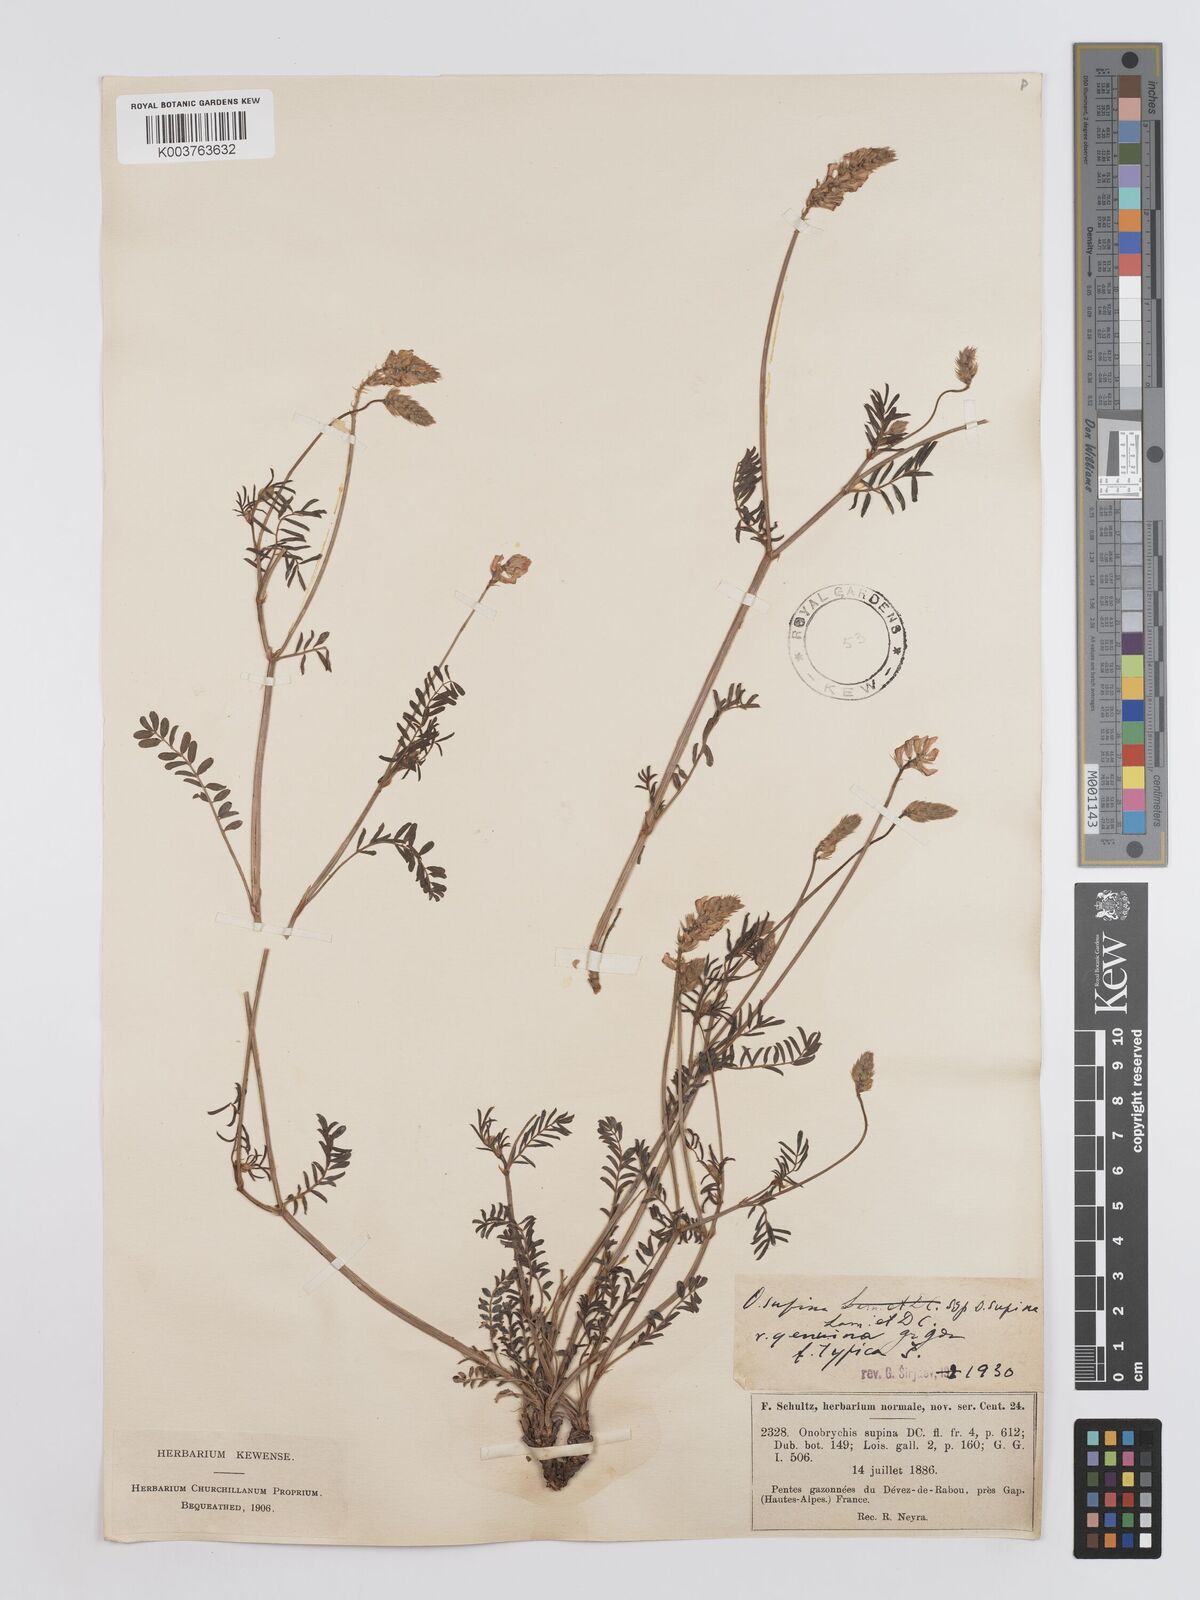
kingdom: Plantae
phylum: Tracheophyta
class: Magnoliopsida
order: Fabales
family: Fabaceae
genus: Onobrychis
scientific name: Onobrychis supina
